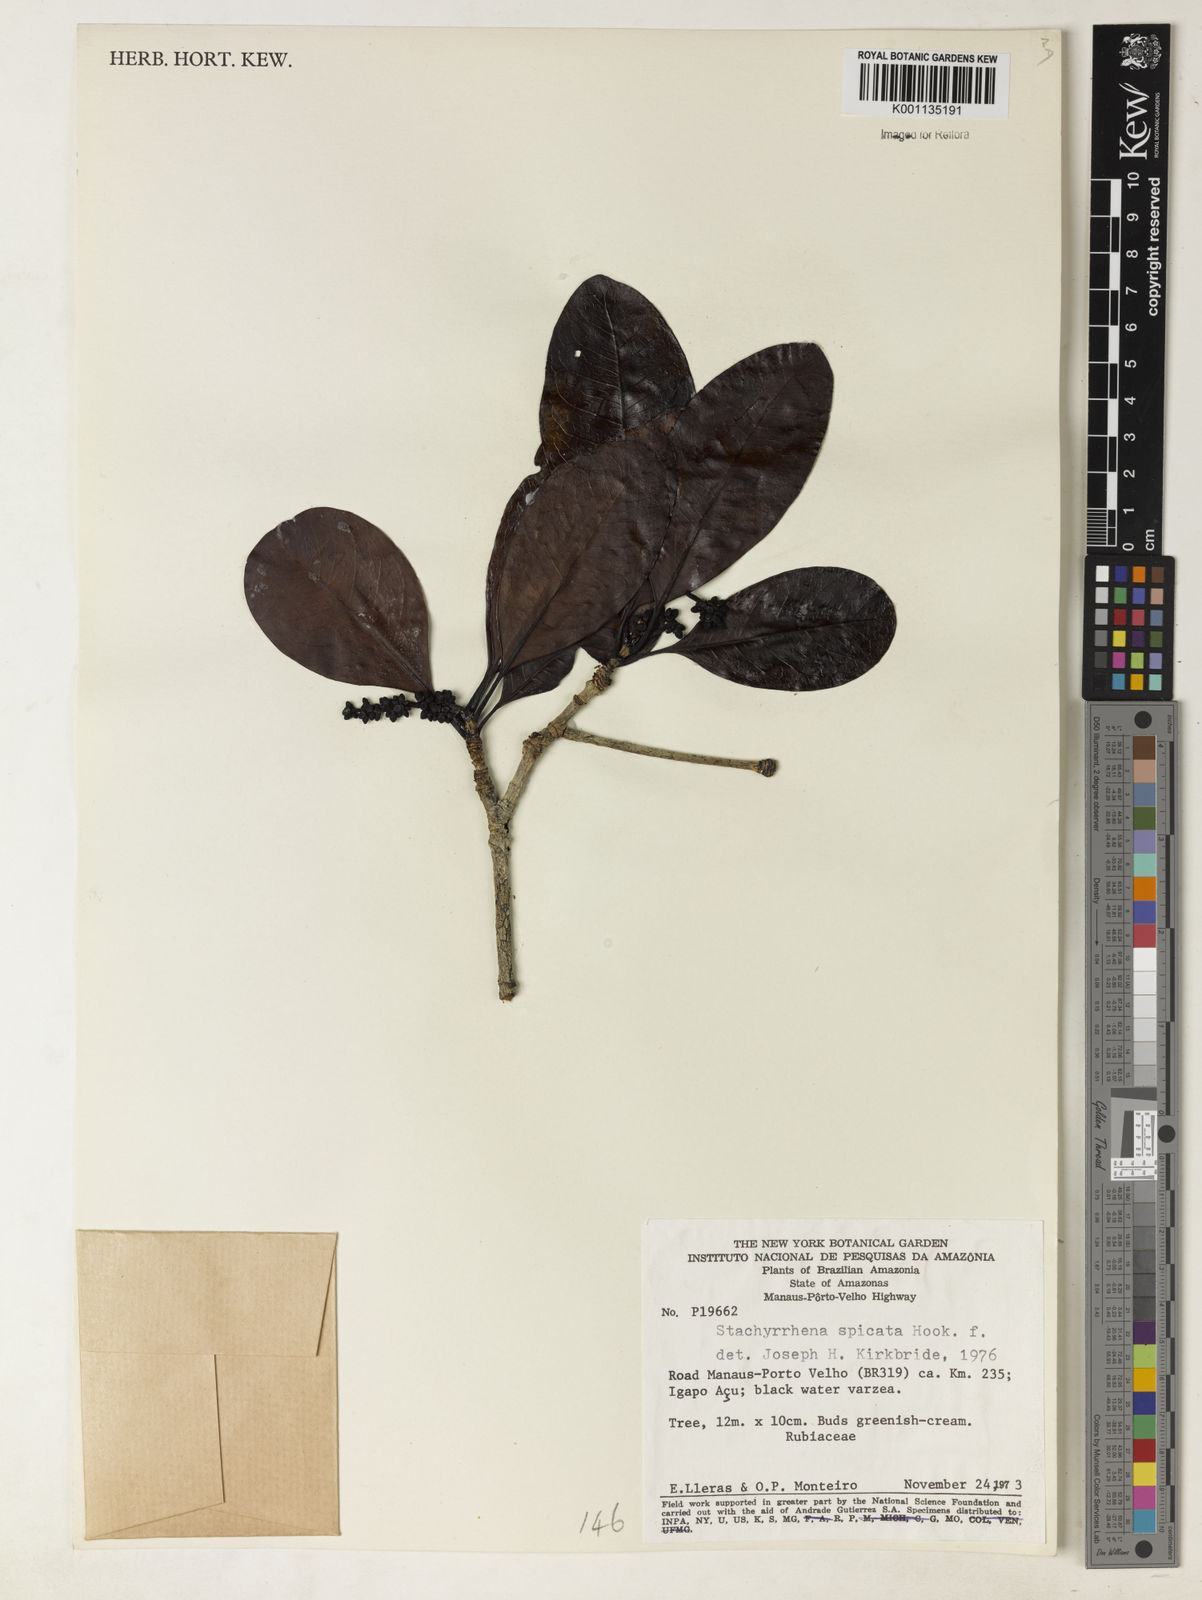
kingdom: Plantae
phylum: Tracheophyta
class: Magnoliopsida
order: Gentianales
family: Rubiaceae
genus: Stachyarrhena
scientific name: Stachyarrhena spicata
